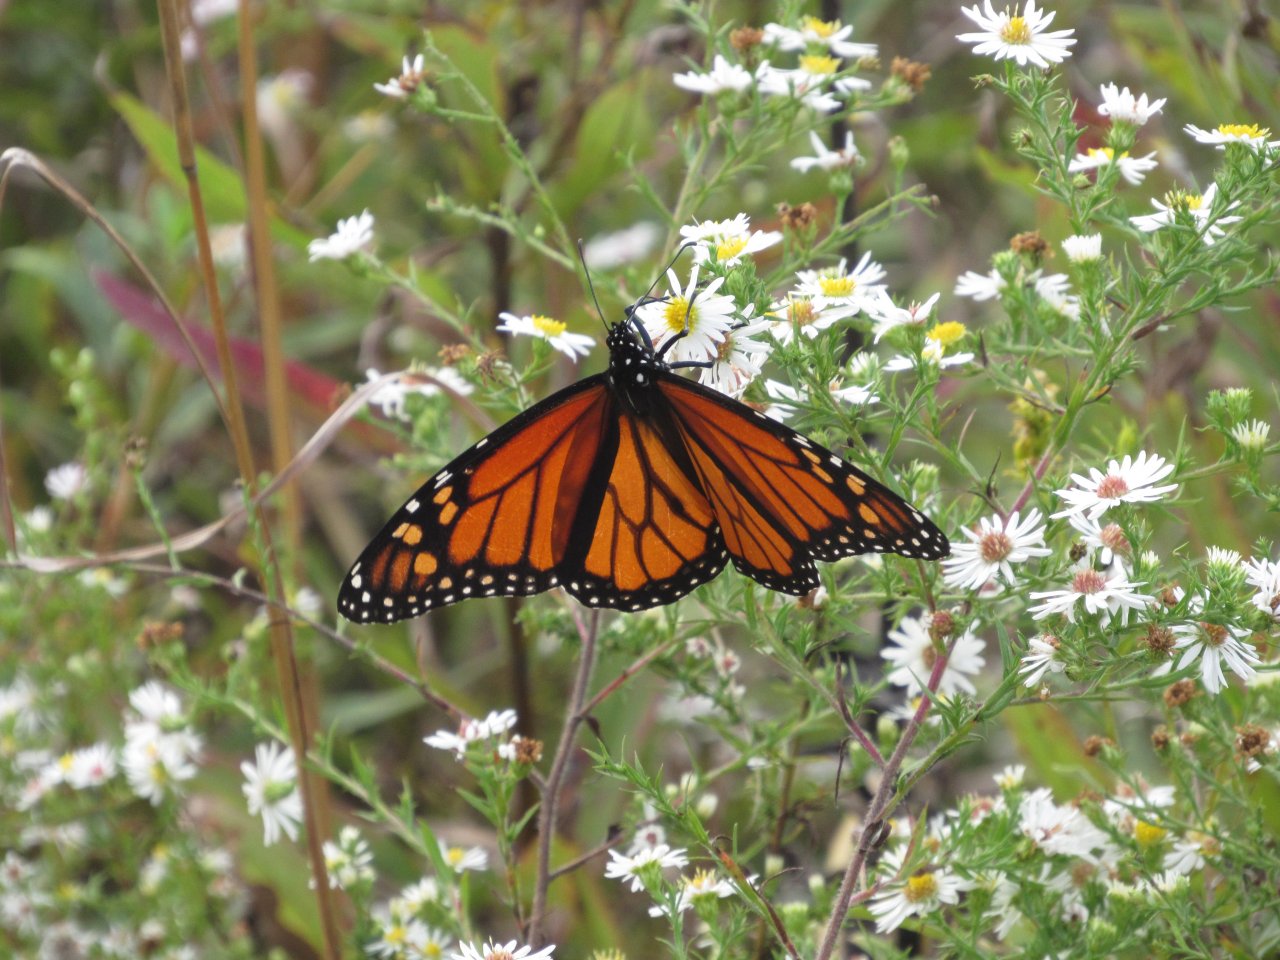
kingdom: Animalia
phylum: Arthropoda
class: Insecta
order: Lepidoptera
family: Nymphalidae
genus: Danaus
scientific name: Danaus plexippus
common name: Monarch
